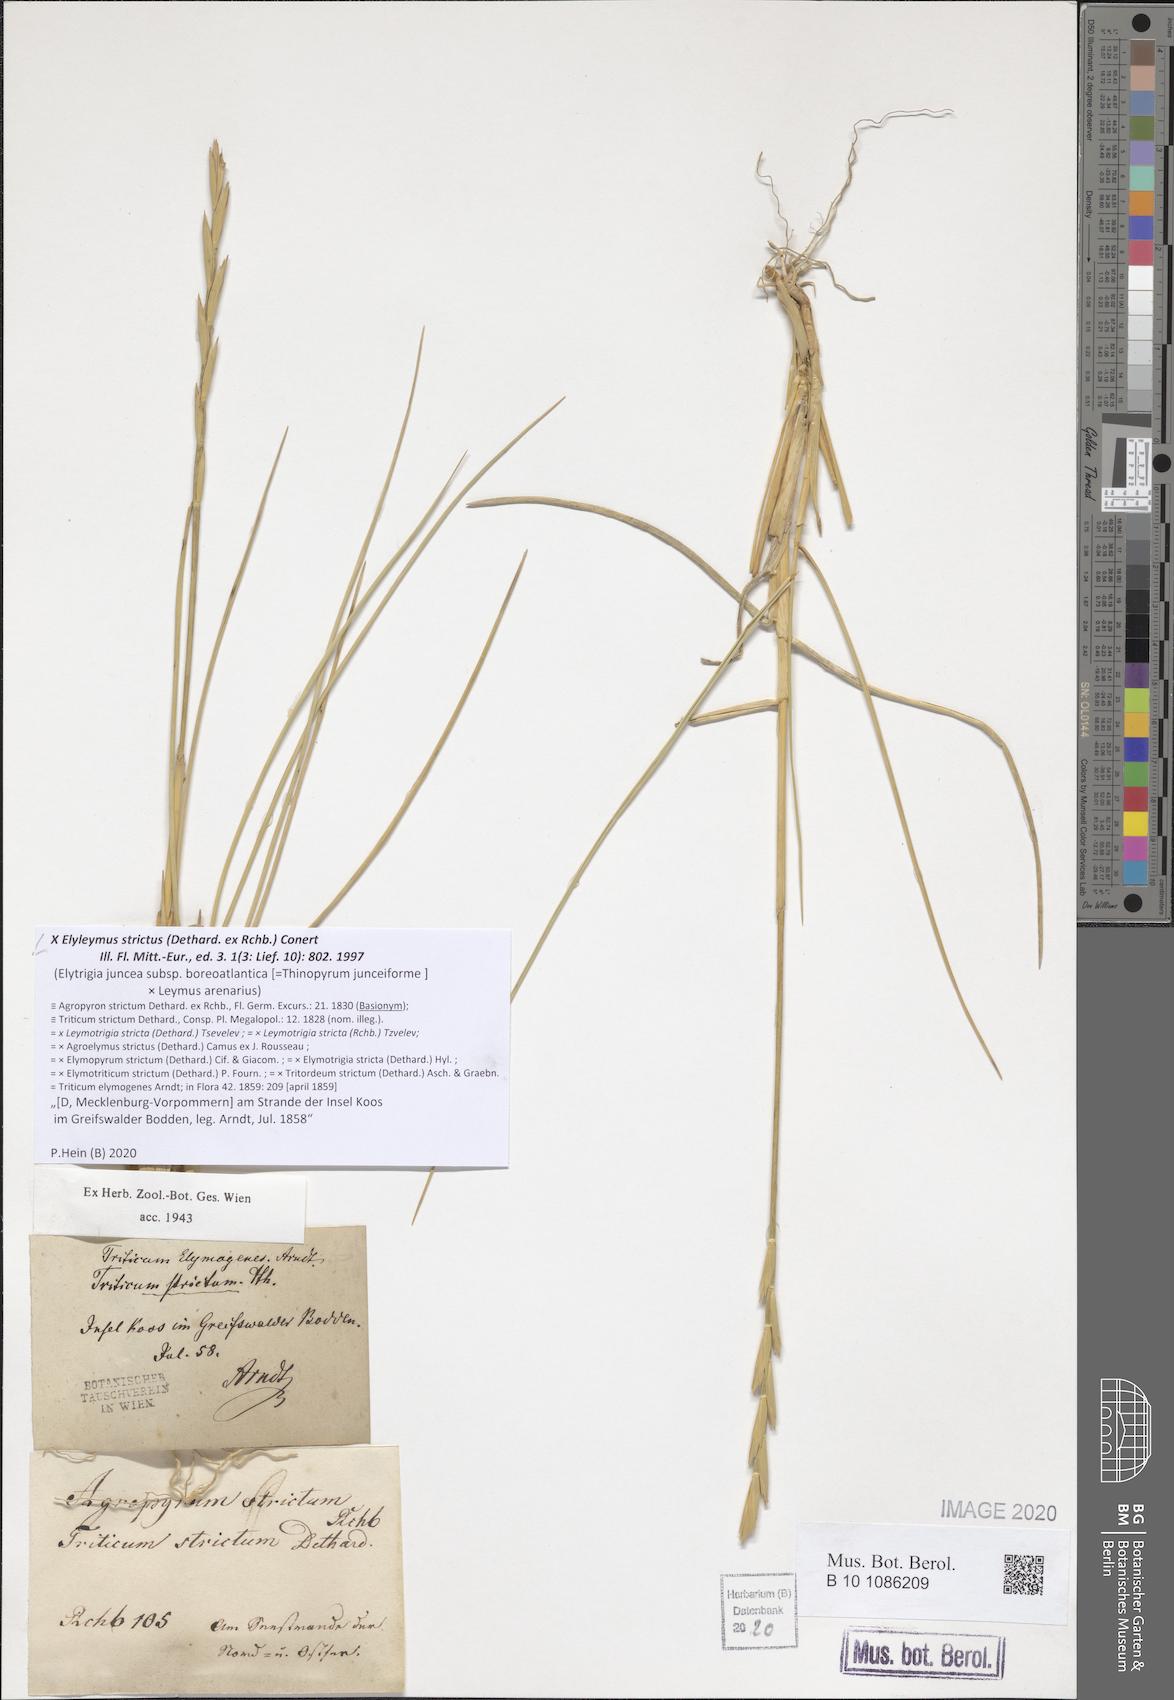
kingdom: Plantae
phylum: Tracheophyta
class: Liliopsida
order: Poales
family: Poaceae
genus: Elyleymus
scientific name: Elyleymus strictus
